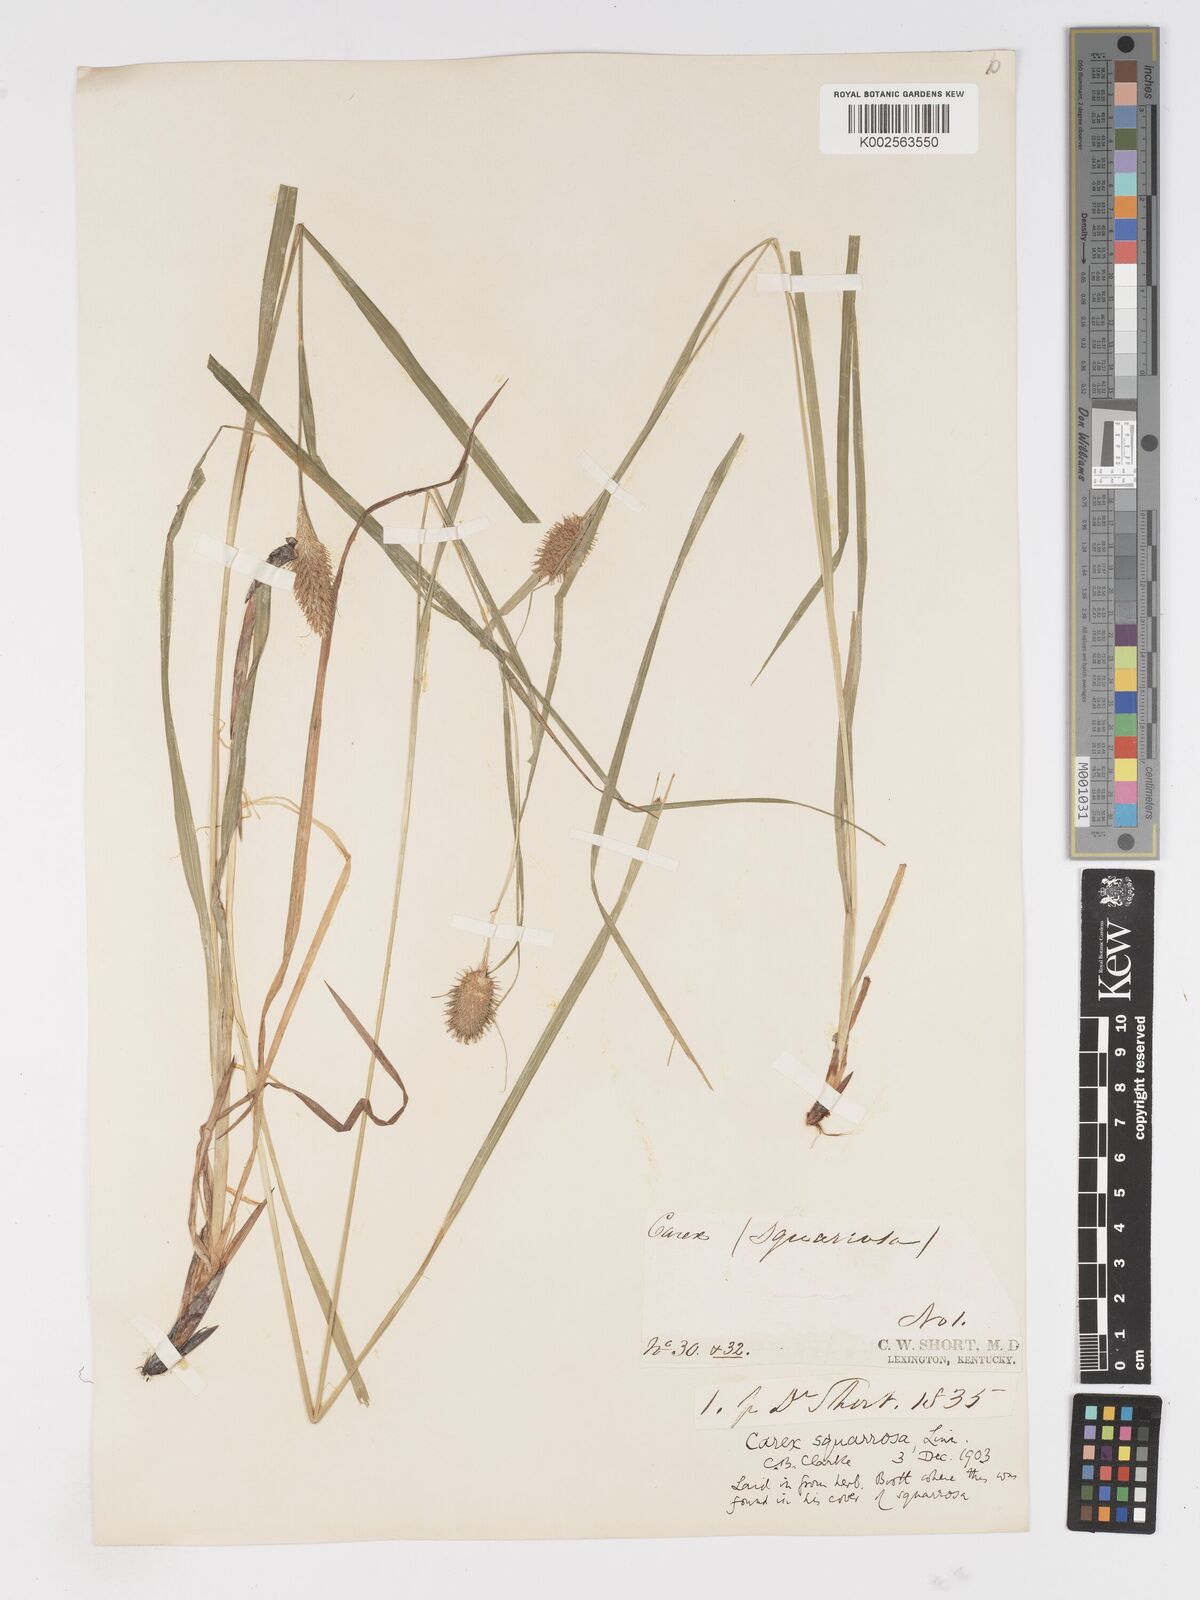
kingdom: Plantae
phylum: Tracheophyta
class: Liliopsida
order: Poales
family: Cyperaceae
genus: Carex
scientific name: Carex squarrosa
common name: Narrow-leaved cattail sedge
